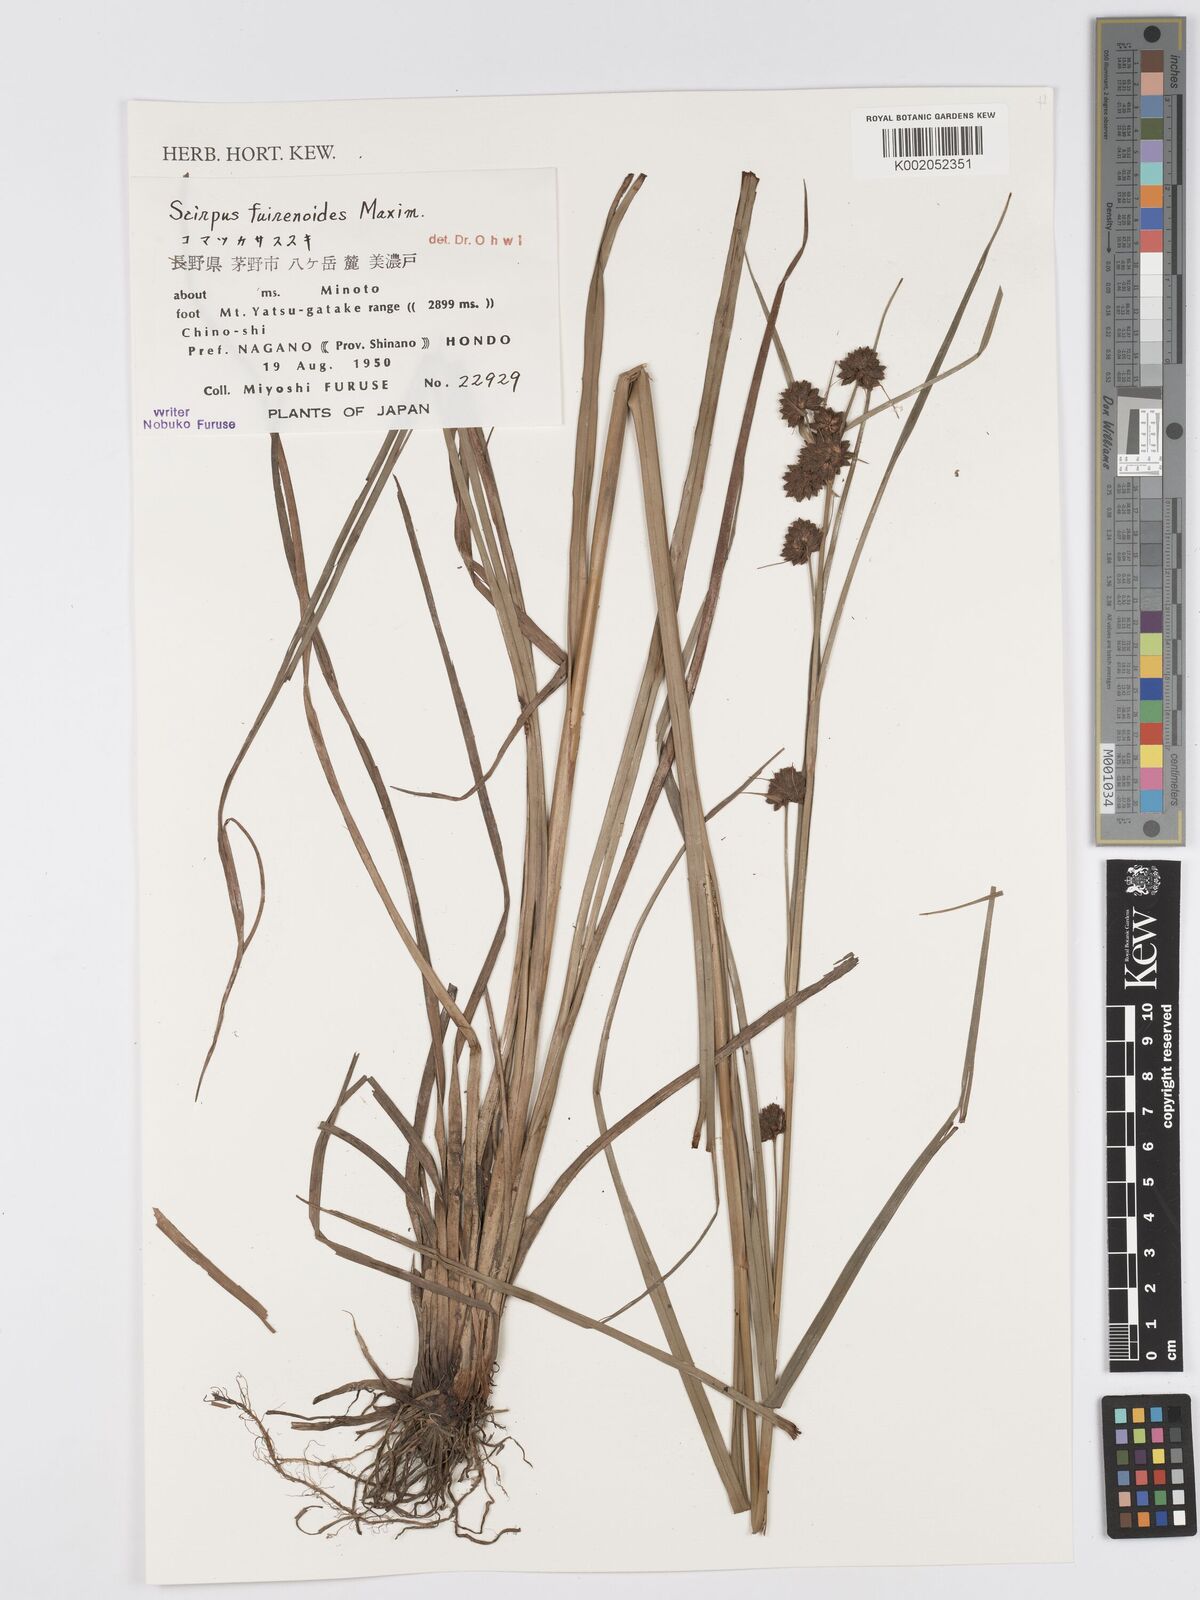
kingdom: Plantae
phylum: Tracheophyta
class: Liliopsida
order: Poales
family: Cyperaceae
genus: Scirpus
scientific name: Scirpus fuirenoides
